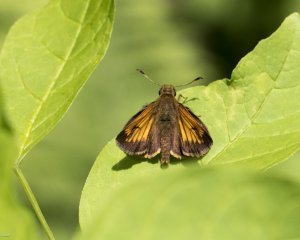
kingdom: Animalia
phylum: Arthropoda
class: Insecta
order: Lepidoptera
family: Hesperiidae
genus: Lon
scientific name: Lon hobomok
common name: Hobomok Skipper
